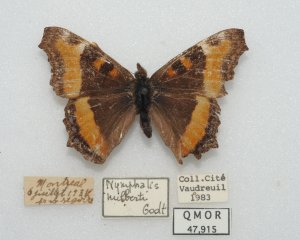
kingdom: Animalia
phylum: Arthropoda
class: Insecta
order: Lepidoptera
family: Nymphalidae
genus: Aglais
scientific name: Aglais milberti
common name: Milbert's Tortoiseshell
